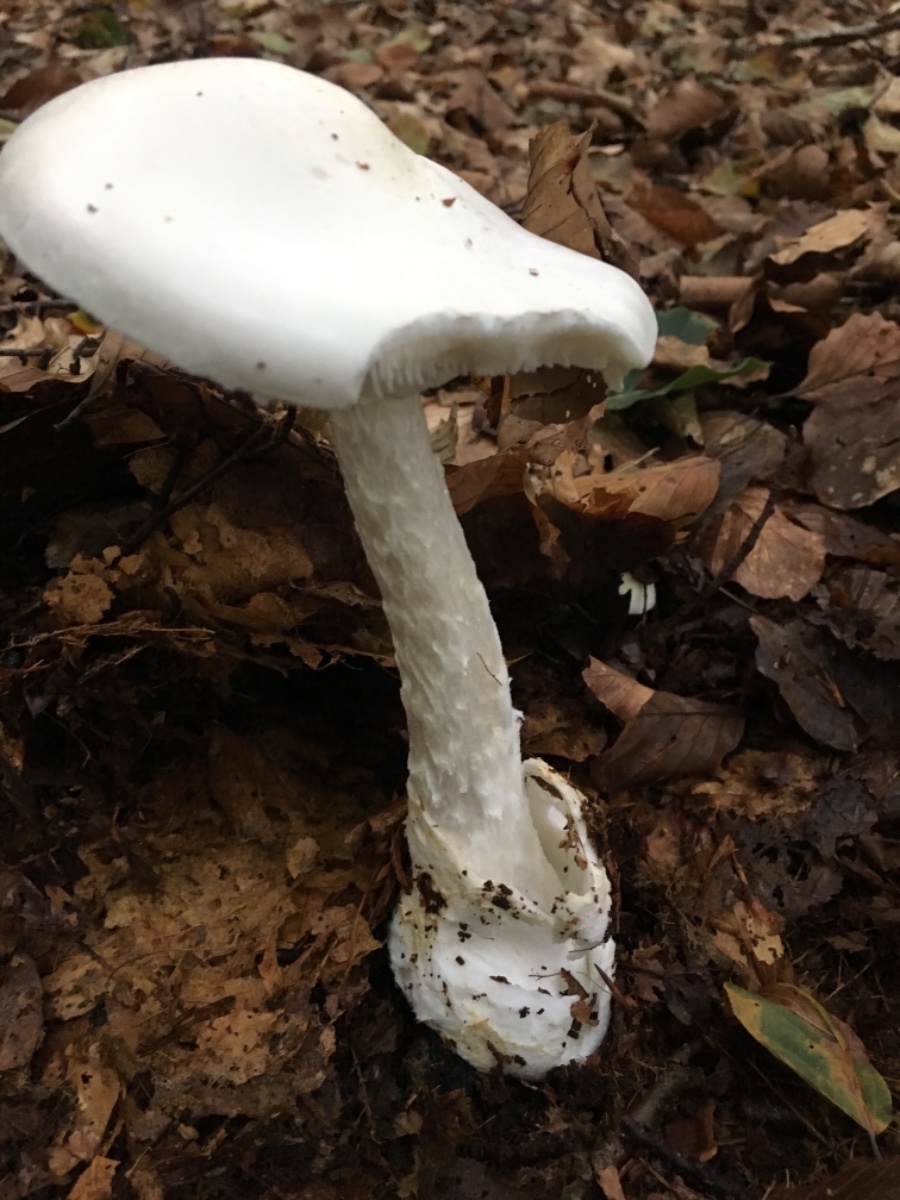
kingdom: Fungi
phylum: Basidiomycota
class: Agaricomycetes
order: Agaricales
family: Amanitaceae
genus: Amanita
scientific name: Amanita virosa
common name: snehvid fluesvamp
